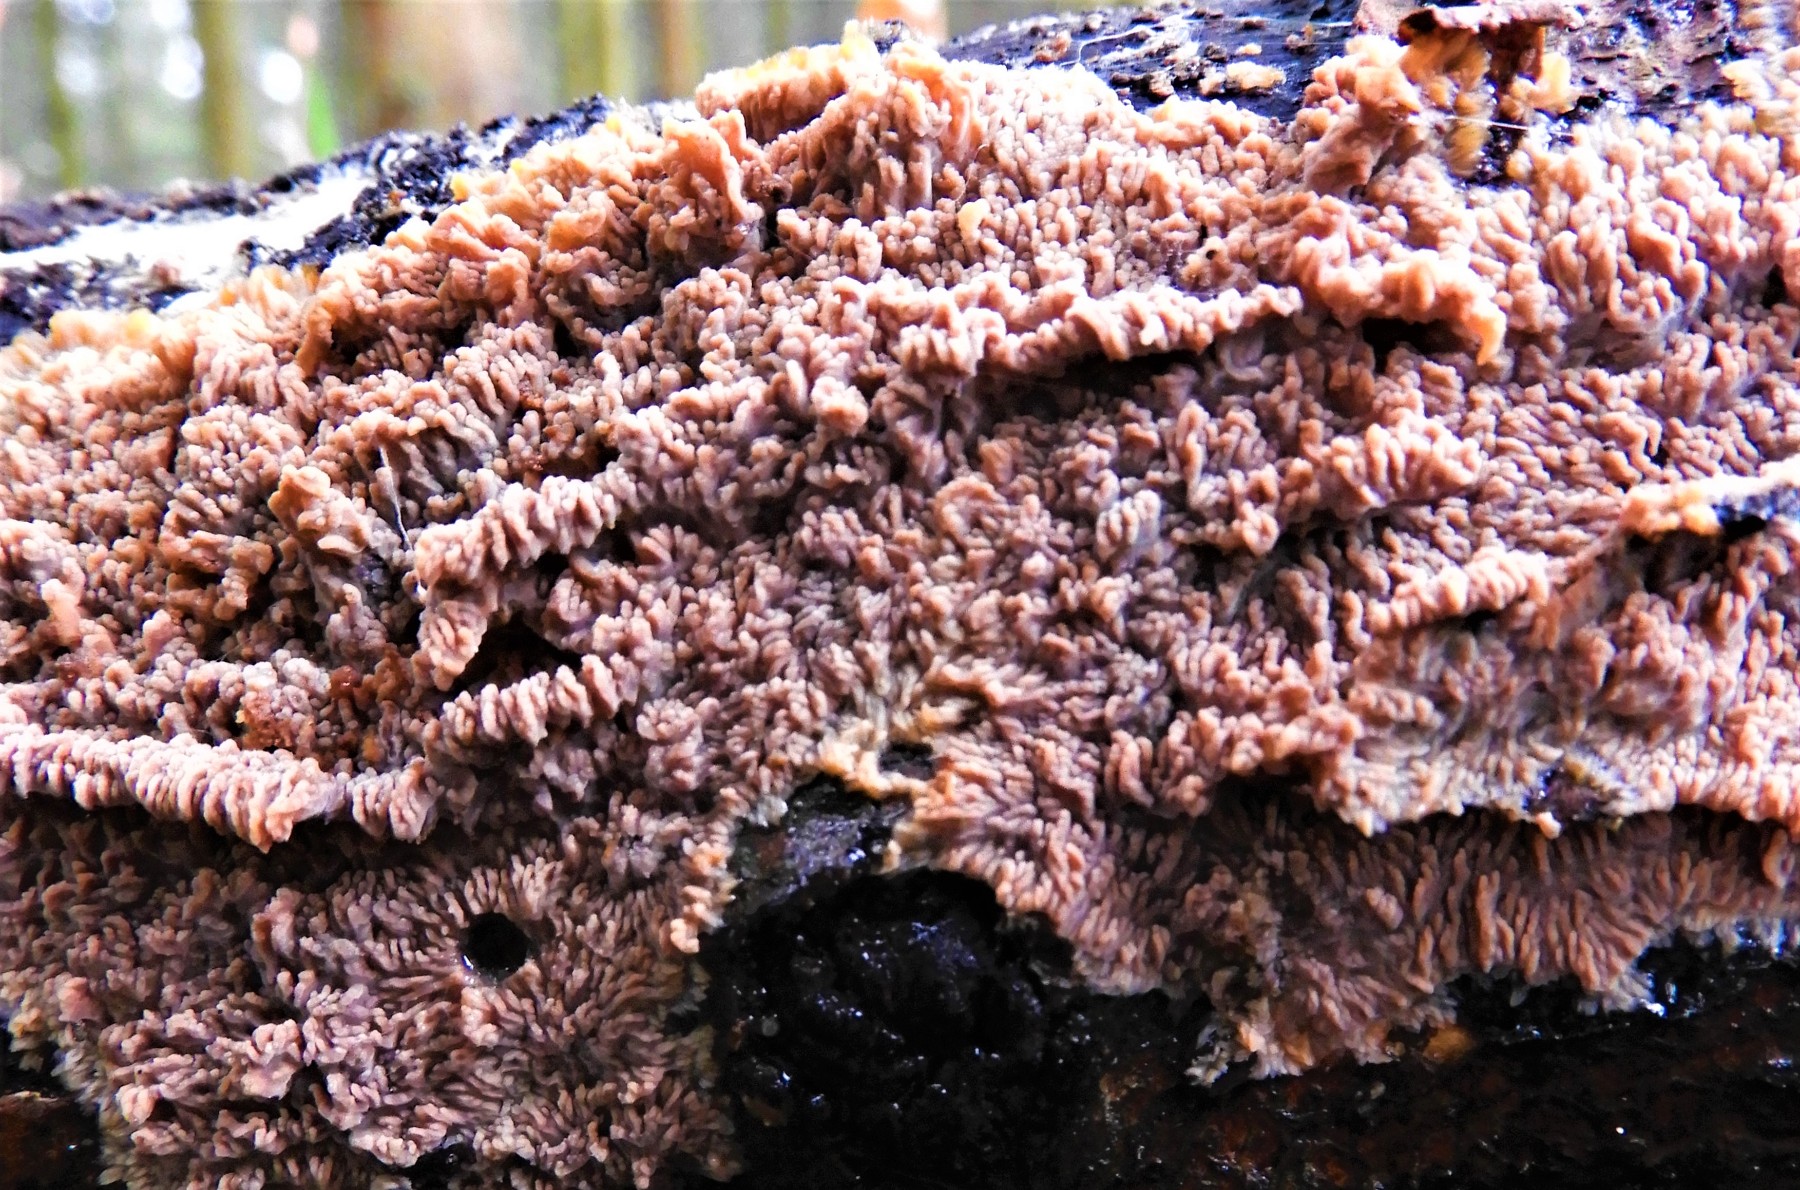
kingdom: Fungi
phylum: Basidiomycota
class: Agaricomycetes
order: Polyporales
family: Meruliaceae
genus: Phlebia
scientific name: Phlebia radiata
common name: stråle-åresvamp
